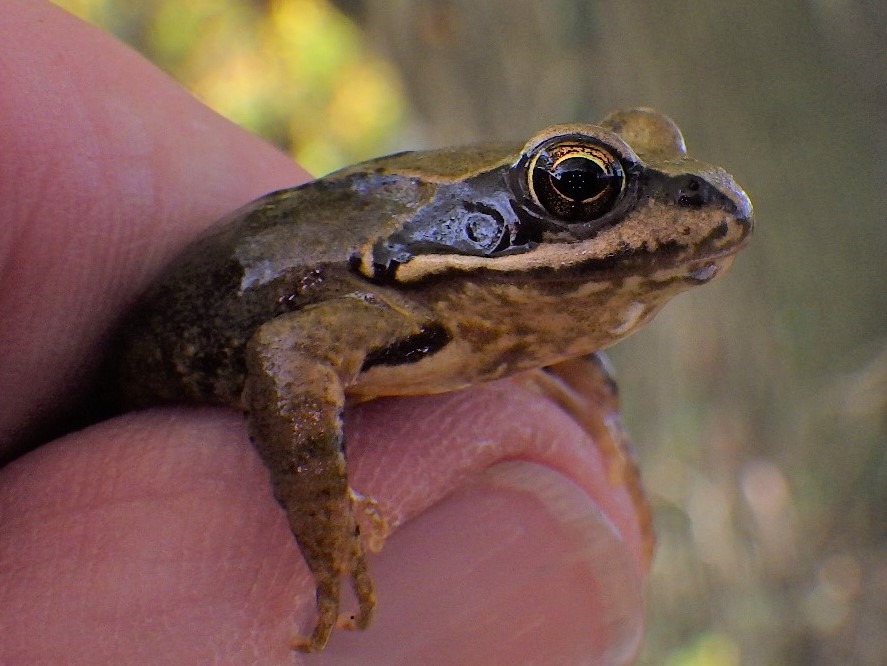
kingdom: Animalia
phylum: Chordata
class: Amphibia
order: Anura
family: Ranidae
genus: Rana
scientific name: Rana temporaria
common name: Butsnudet frø
